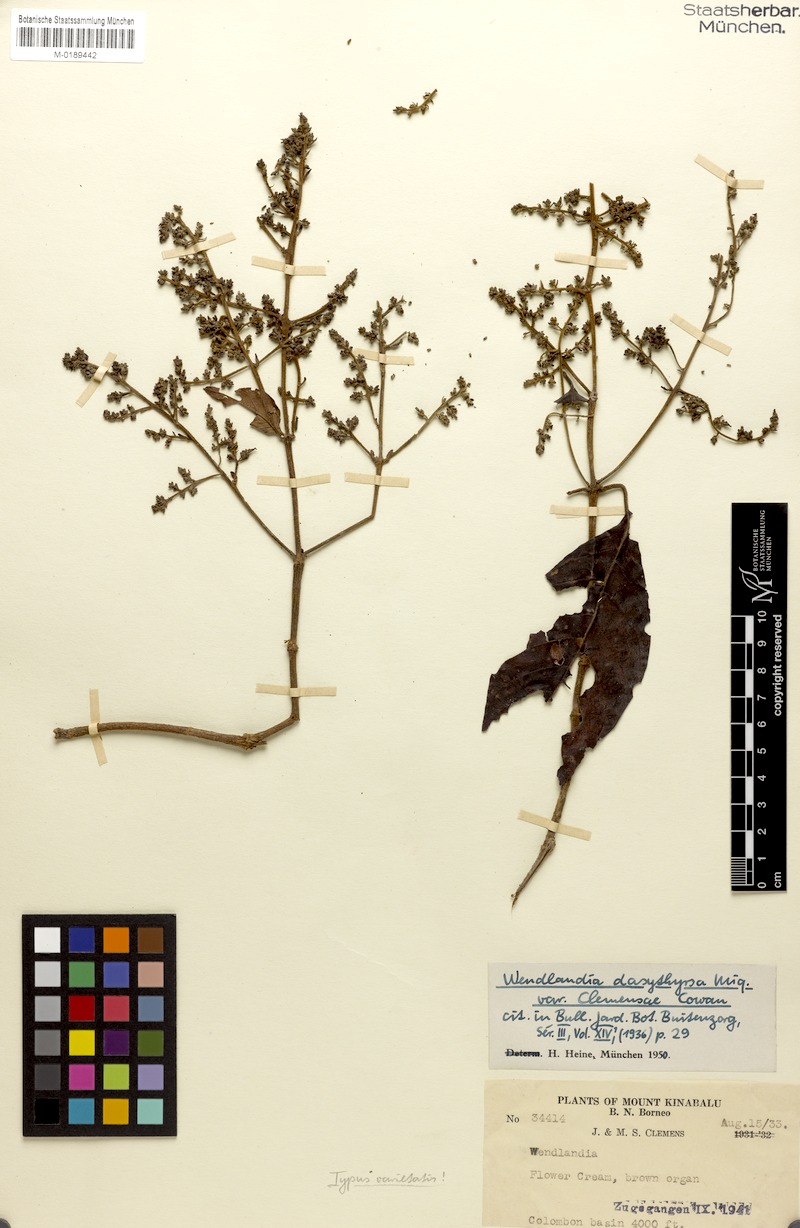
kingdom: Plantae
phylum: Tracheophyta
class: Magnoliopsida
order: Gentianales
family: Rubiaceae
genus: Wendlandia
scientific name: Wendlandia densiflora
